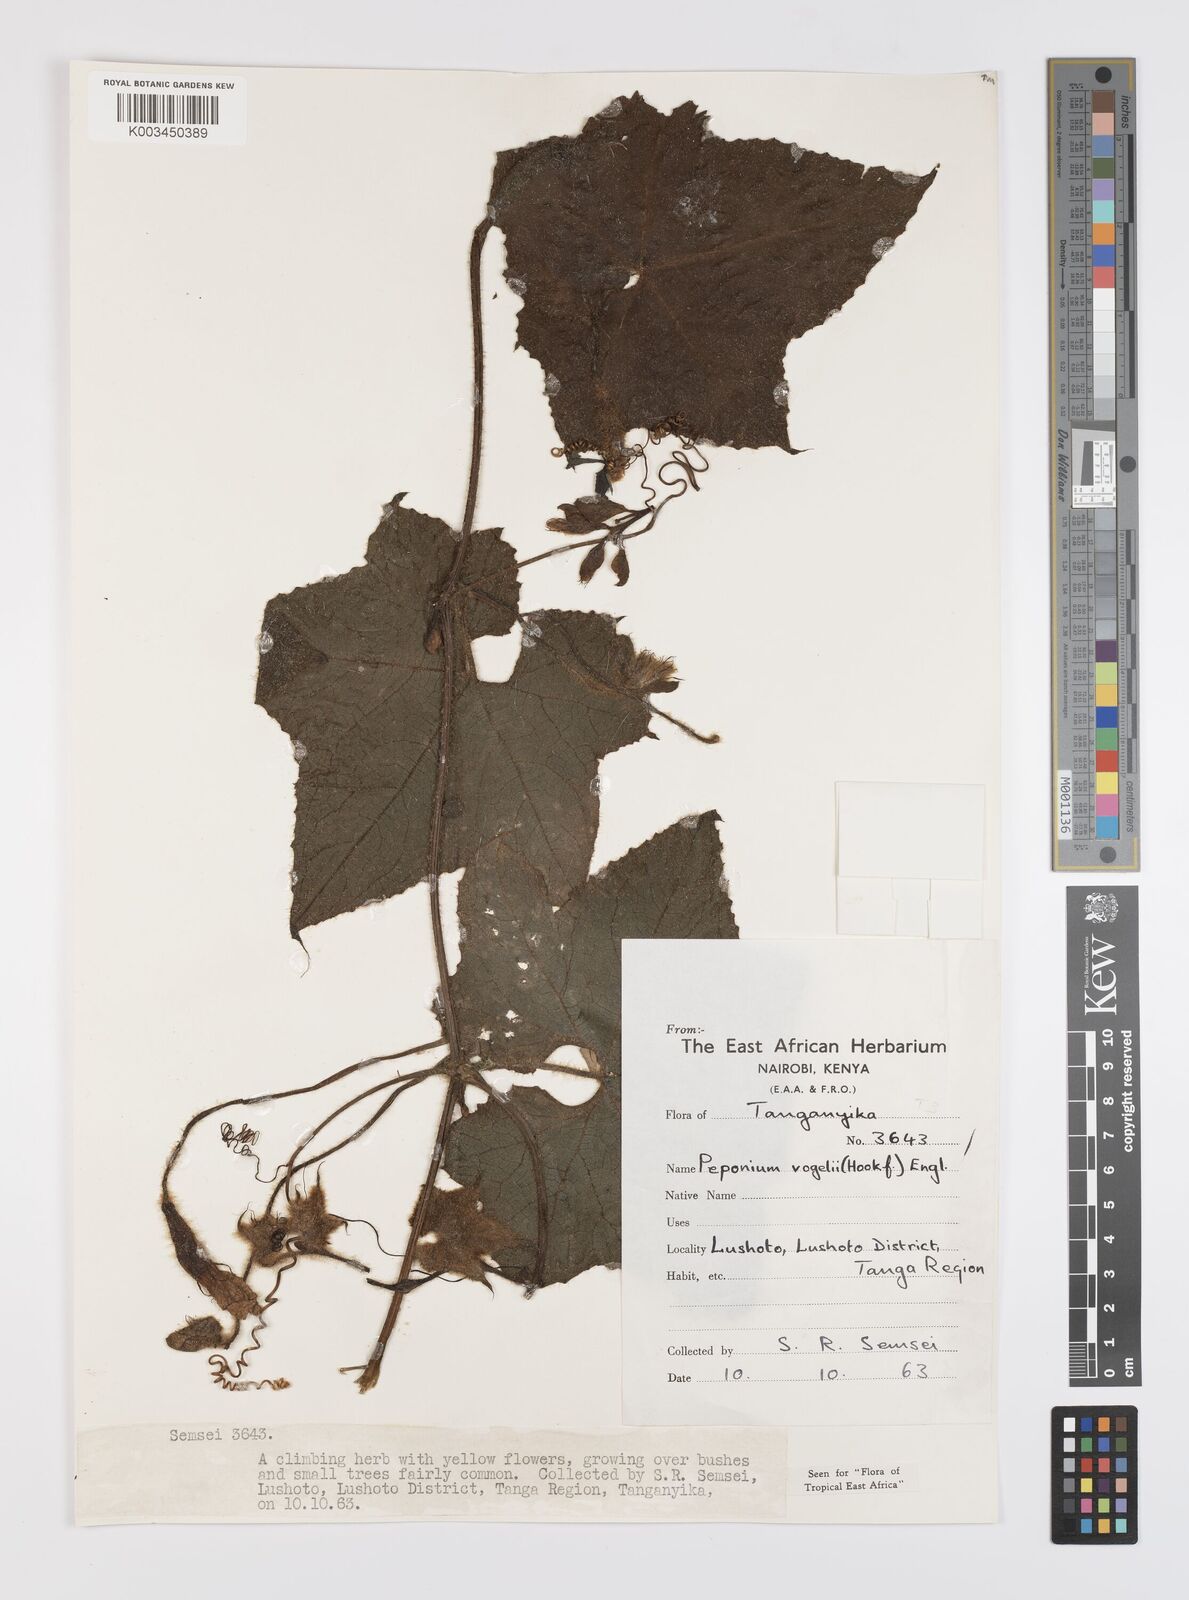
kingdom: Plantae
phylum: Tracheophyta
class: Magnoliopsida
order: Cucurbitales
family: Cucurbitaceae
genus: Peponium
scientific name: Peponium vogelii
